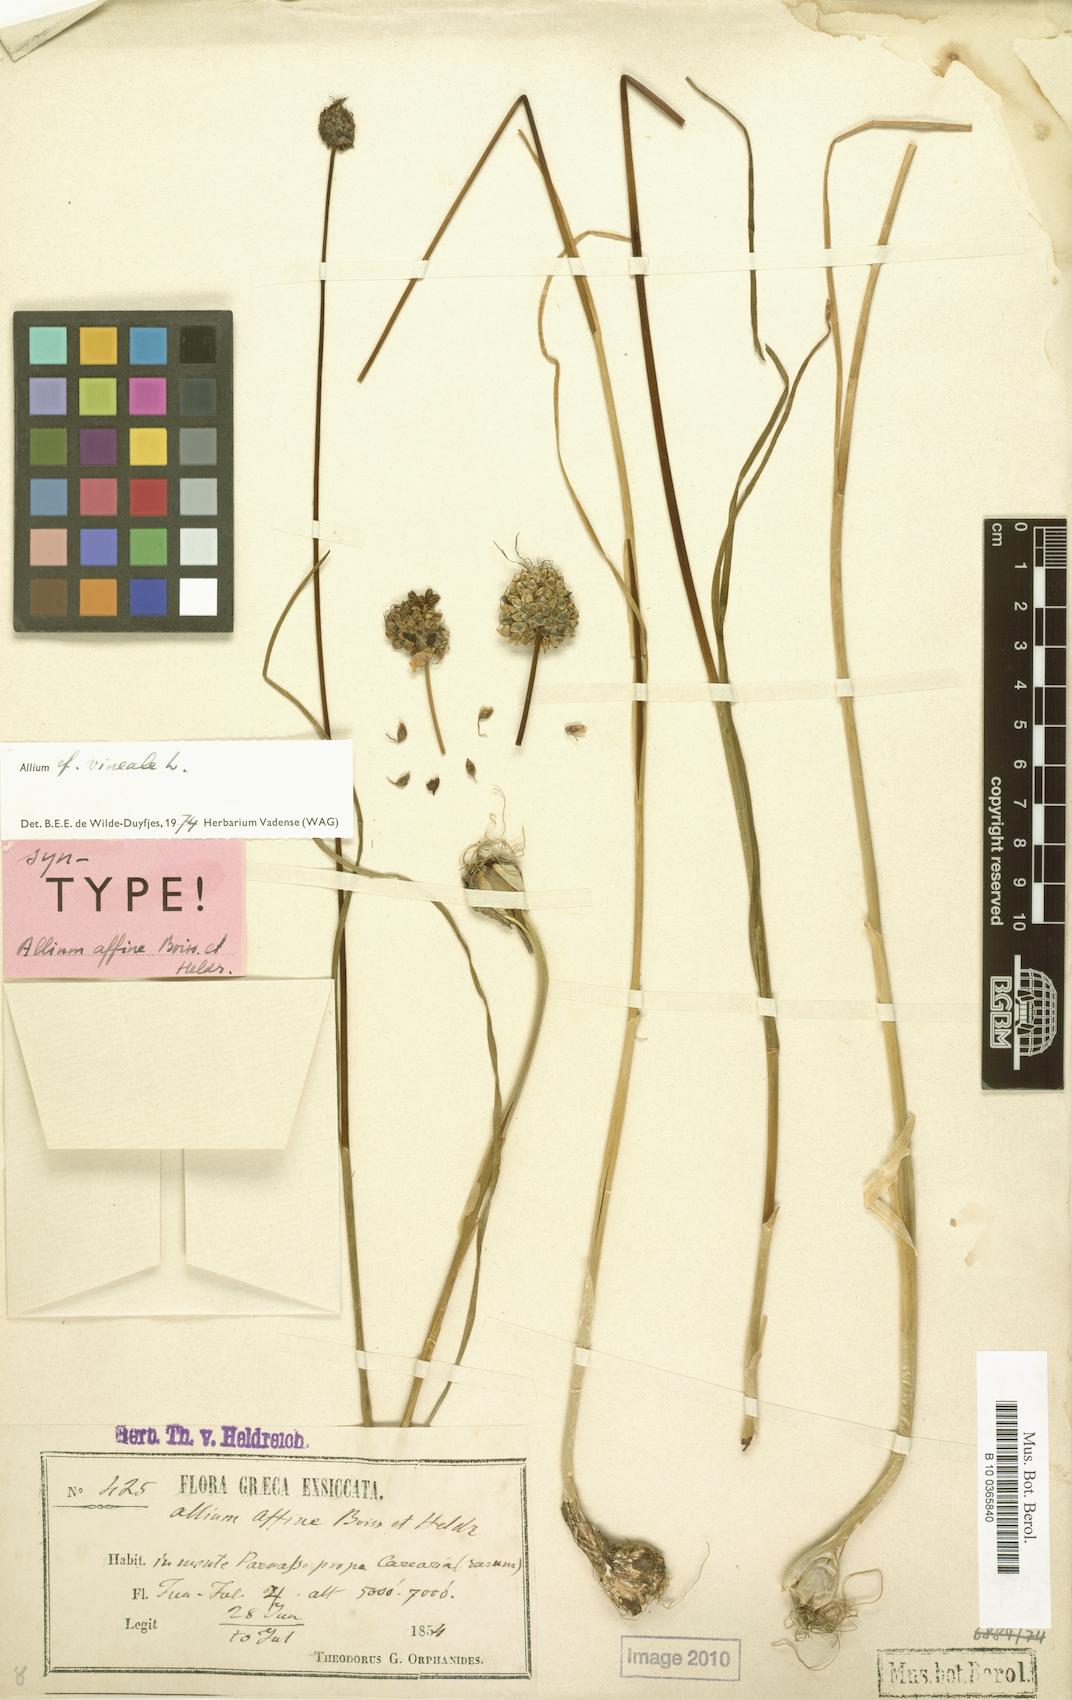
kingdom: Plantae
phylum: Tracheophyta
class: Liliopsida
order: Asparagales
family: Amaryllidaceae
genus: Allium
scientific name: Allium vineale
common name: Crow garlic
